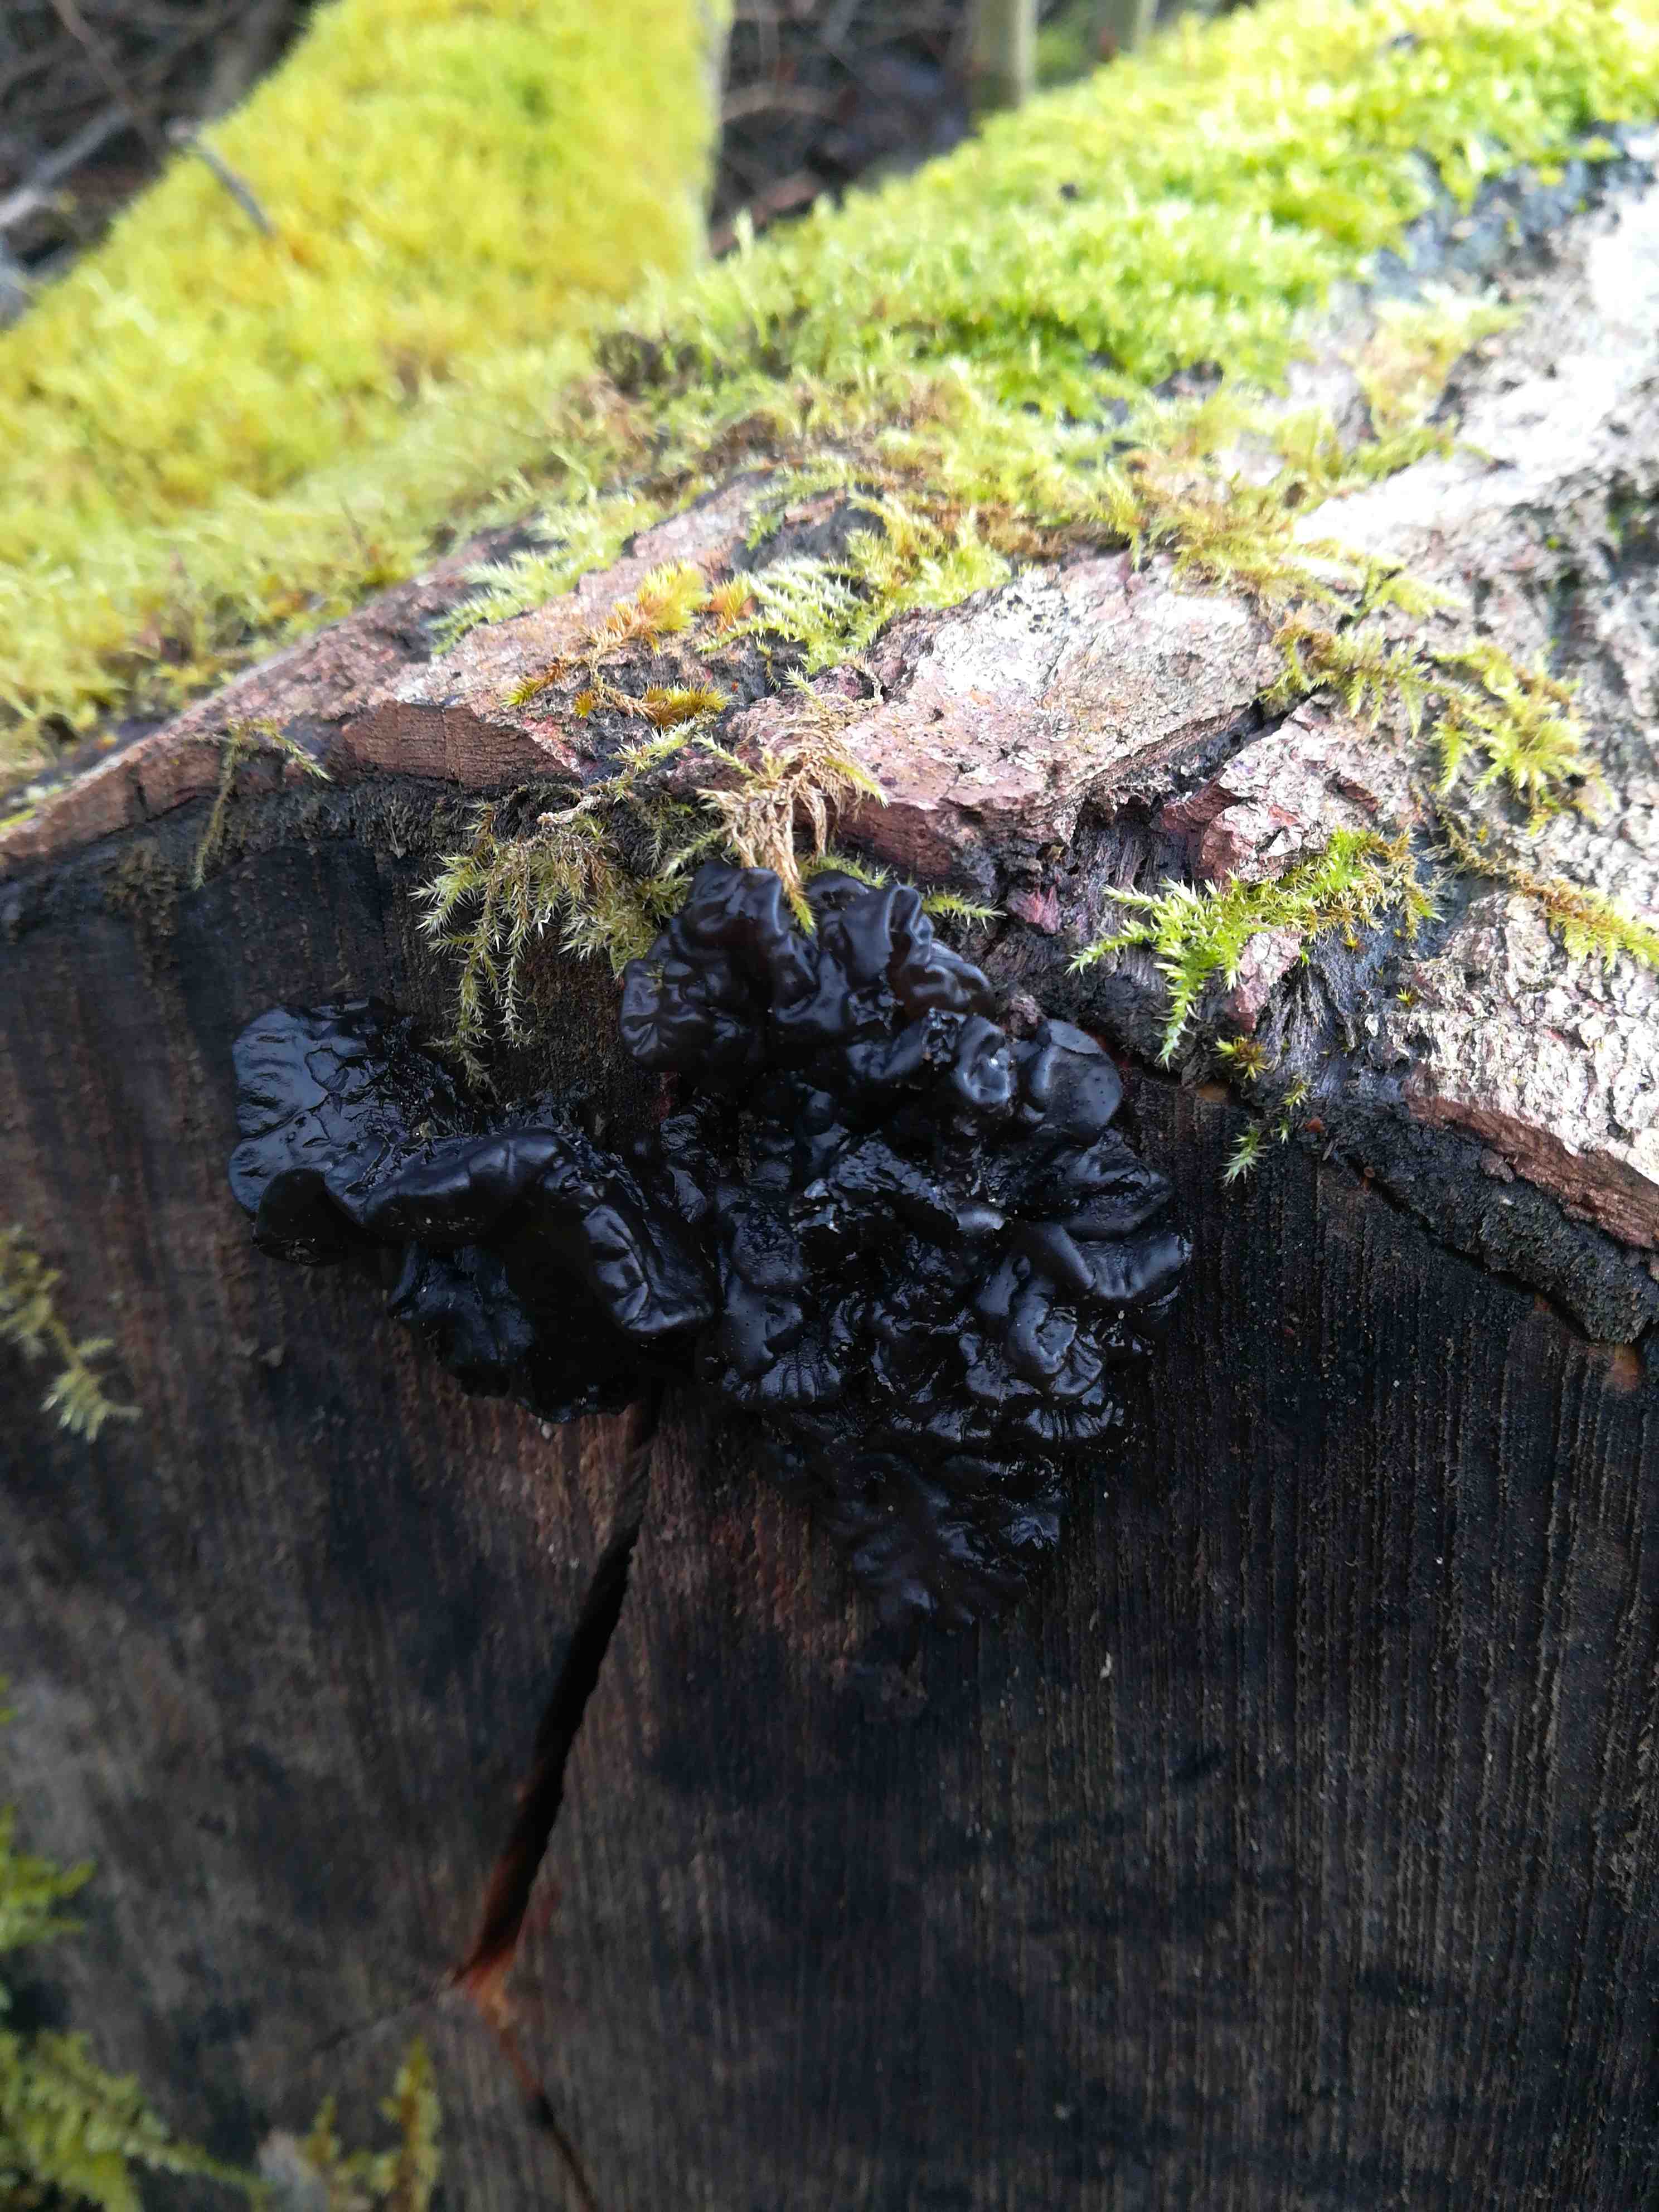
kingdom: Fungi
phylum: Basidiomycota
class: Agaricomycetes
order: Auriculariales
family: Auriculariaceae
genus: Exidia
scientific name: Exidia nigricans
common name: almindelig bævretop
